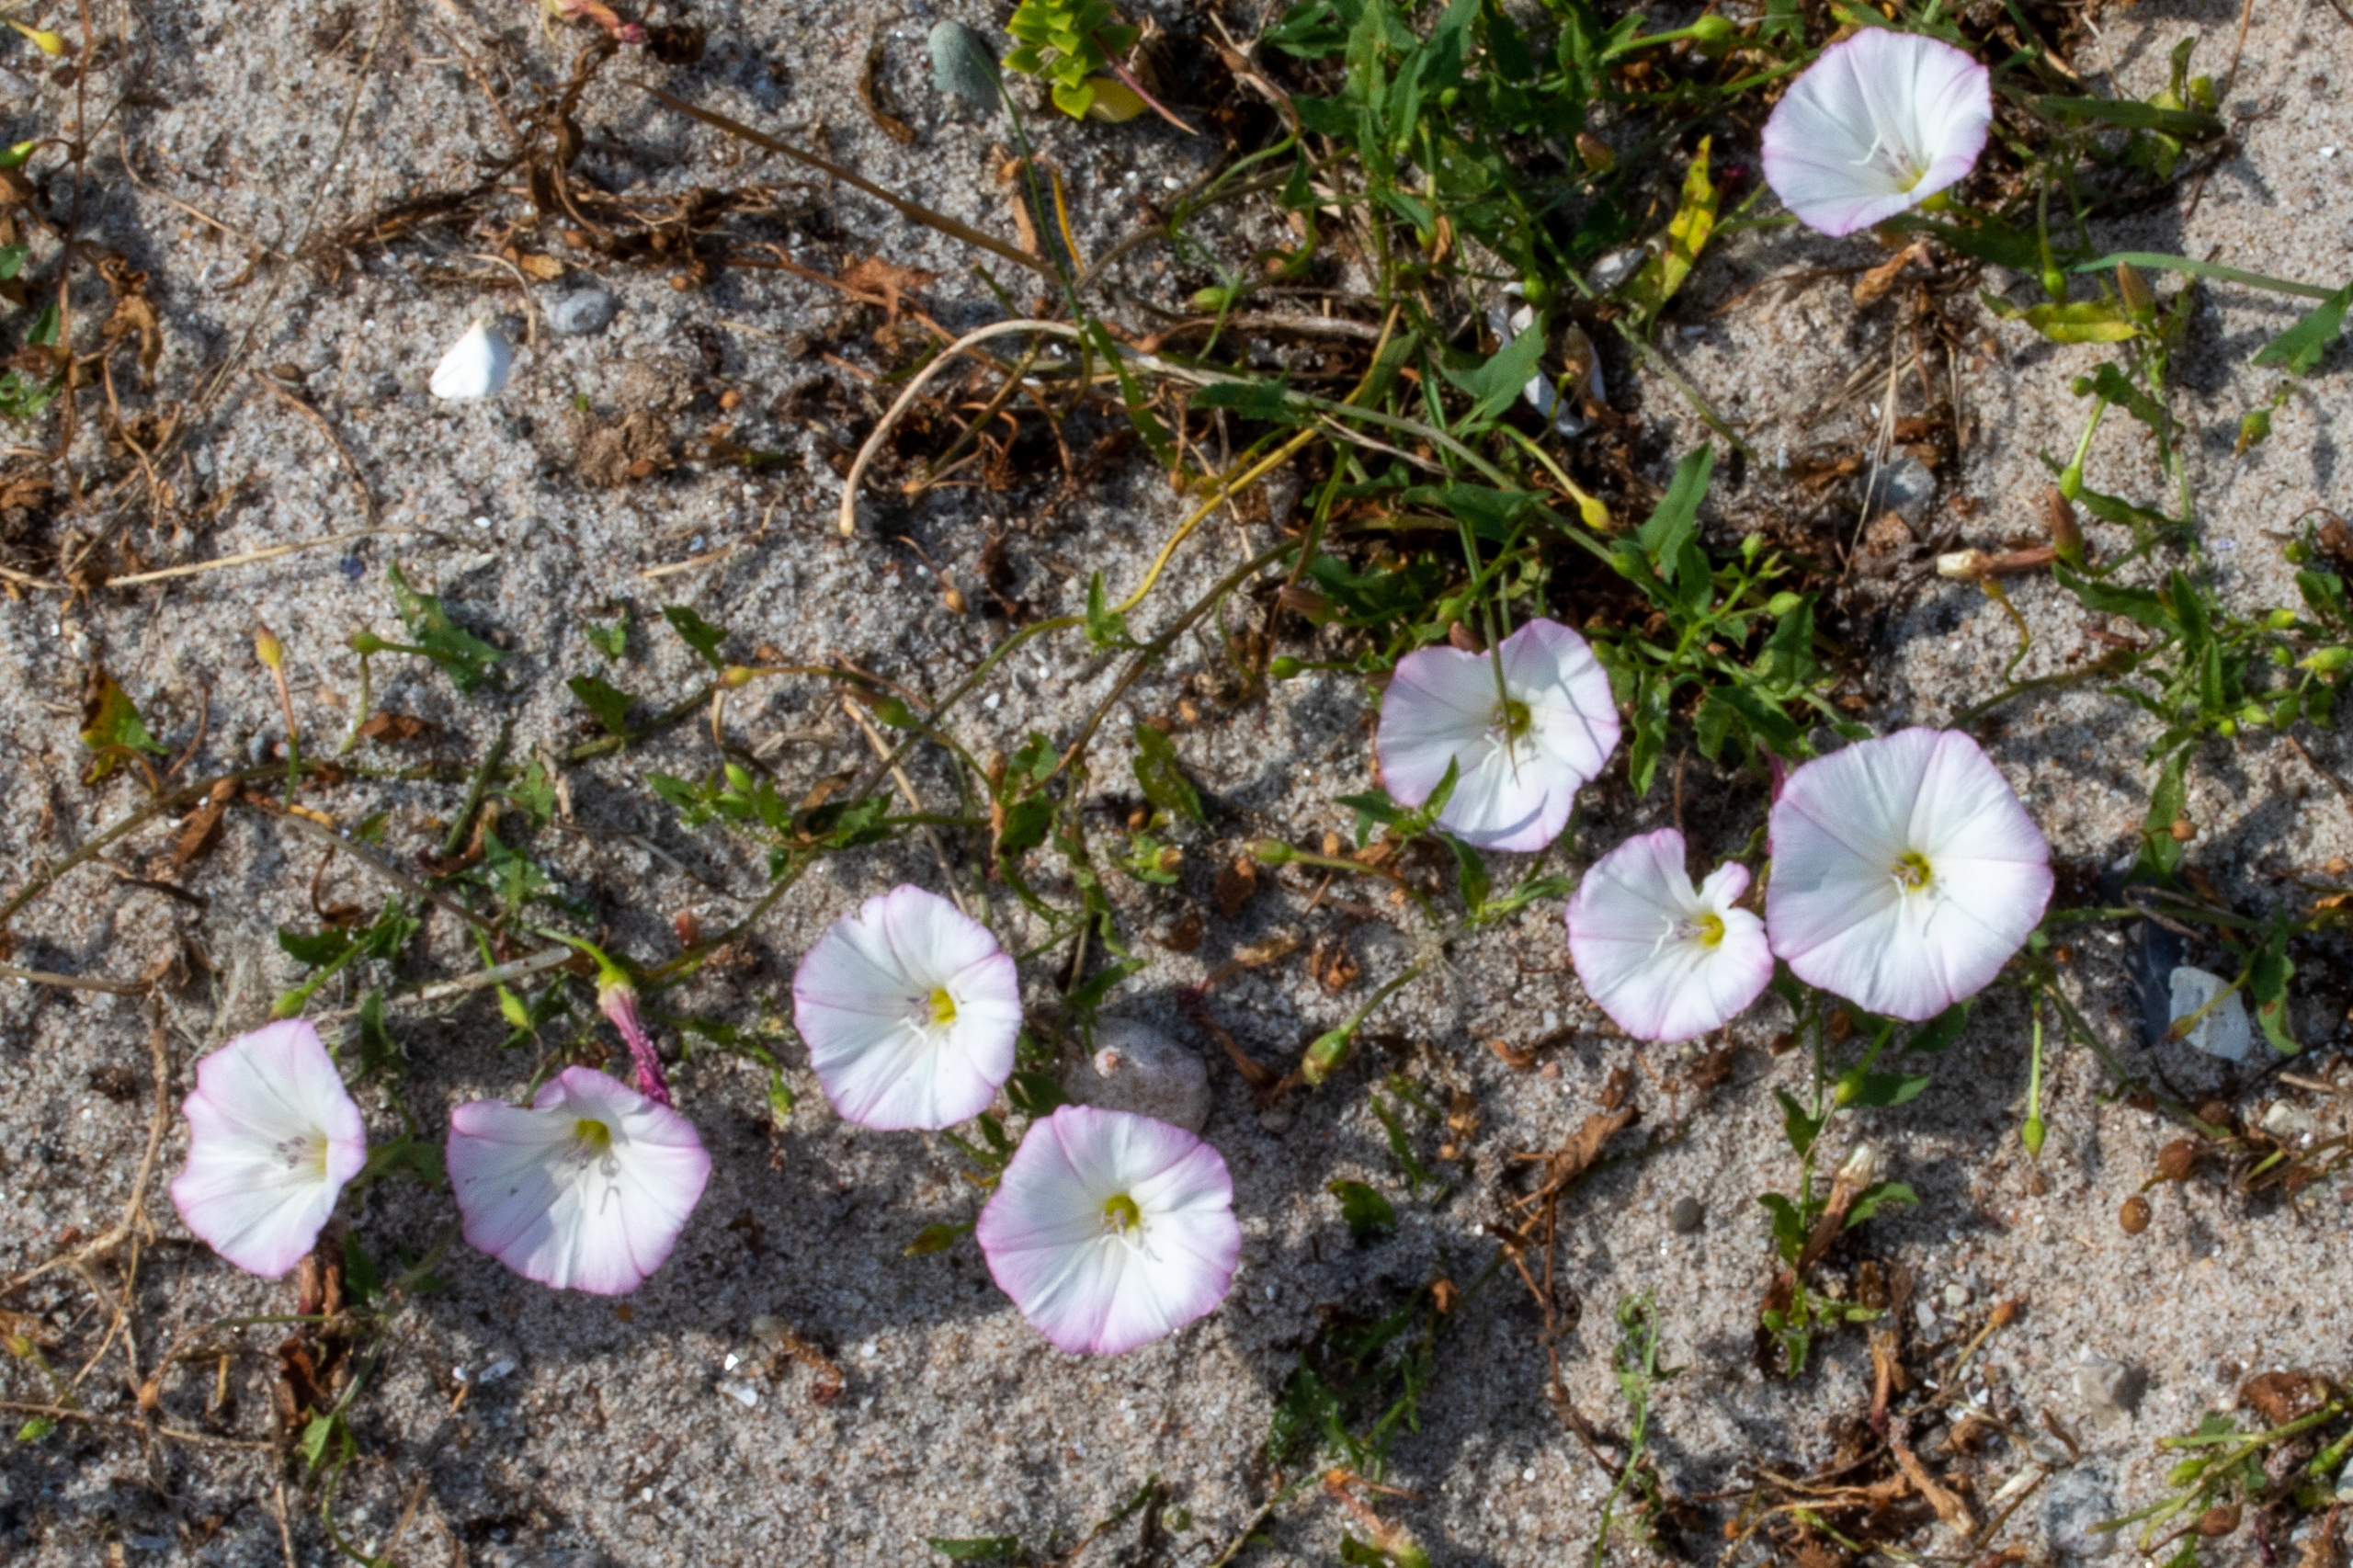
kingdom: Plantae
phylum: Tracheophyta
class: Magnoliopsida
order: Solanales
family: Convolvulaceae
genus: Convolvulus
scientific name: Convolvulus arvensis
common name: Ager-snerle
